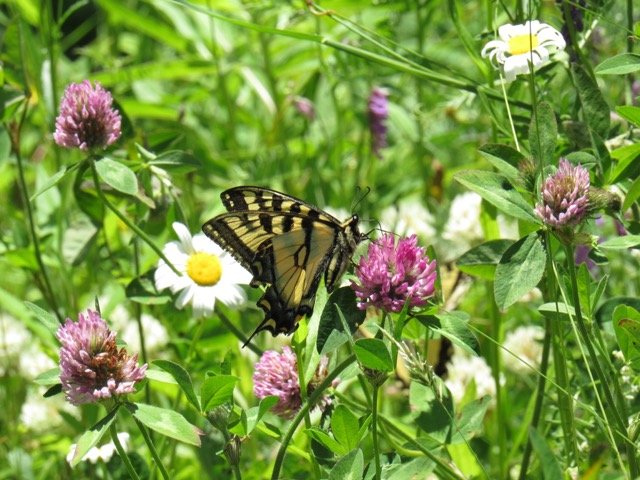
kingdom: Animalia
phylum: Arthropoda
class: Insecta
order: Lepidoptera
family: Papilionidae
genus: Pterourus
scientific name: Pterourus canadensis
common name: Canadian Tiger Swallowtail
